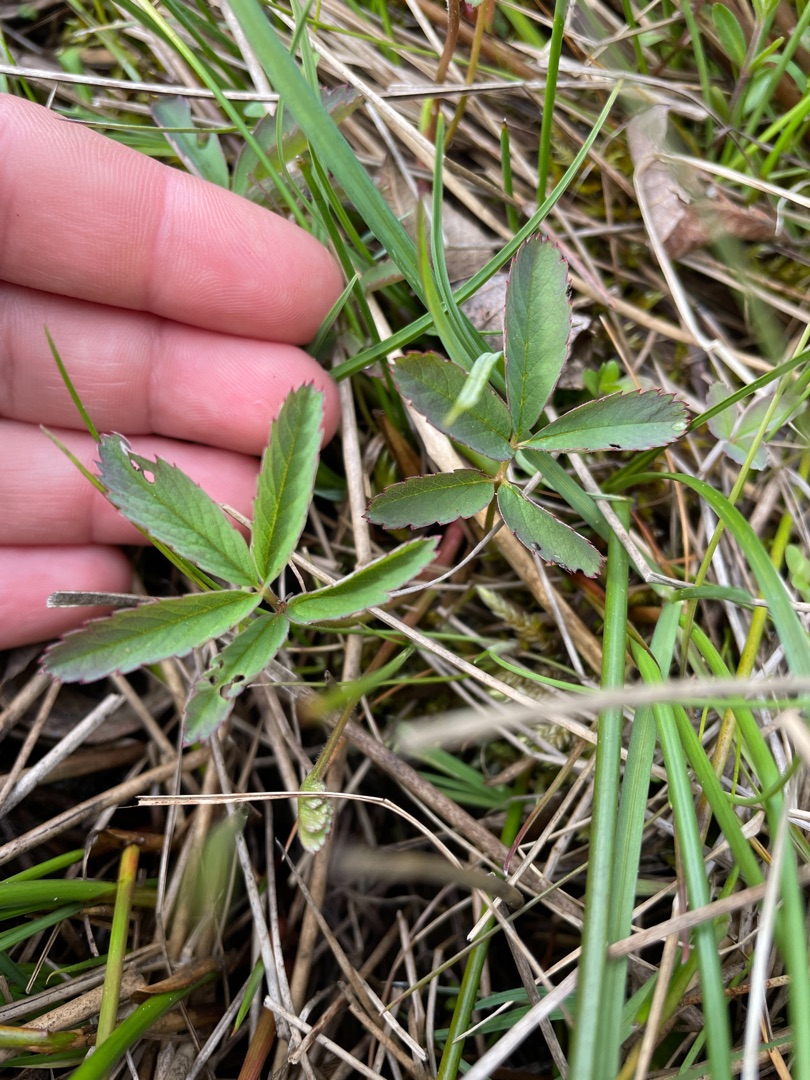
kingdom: Plantae
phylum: Tracheophyta
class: Magnoliopsida
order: Rosales
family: Rosaceae
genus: Comarum
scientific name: Comarum palustre
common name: Kragefod
